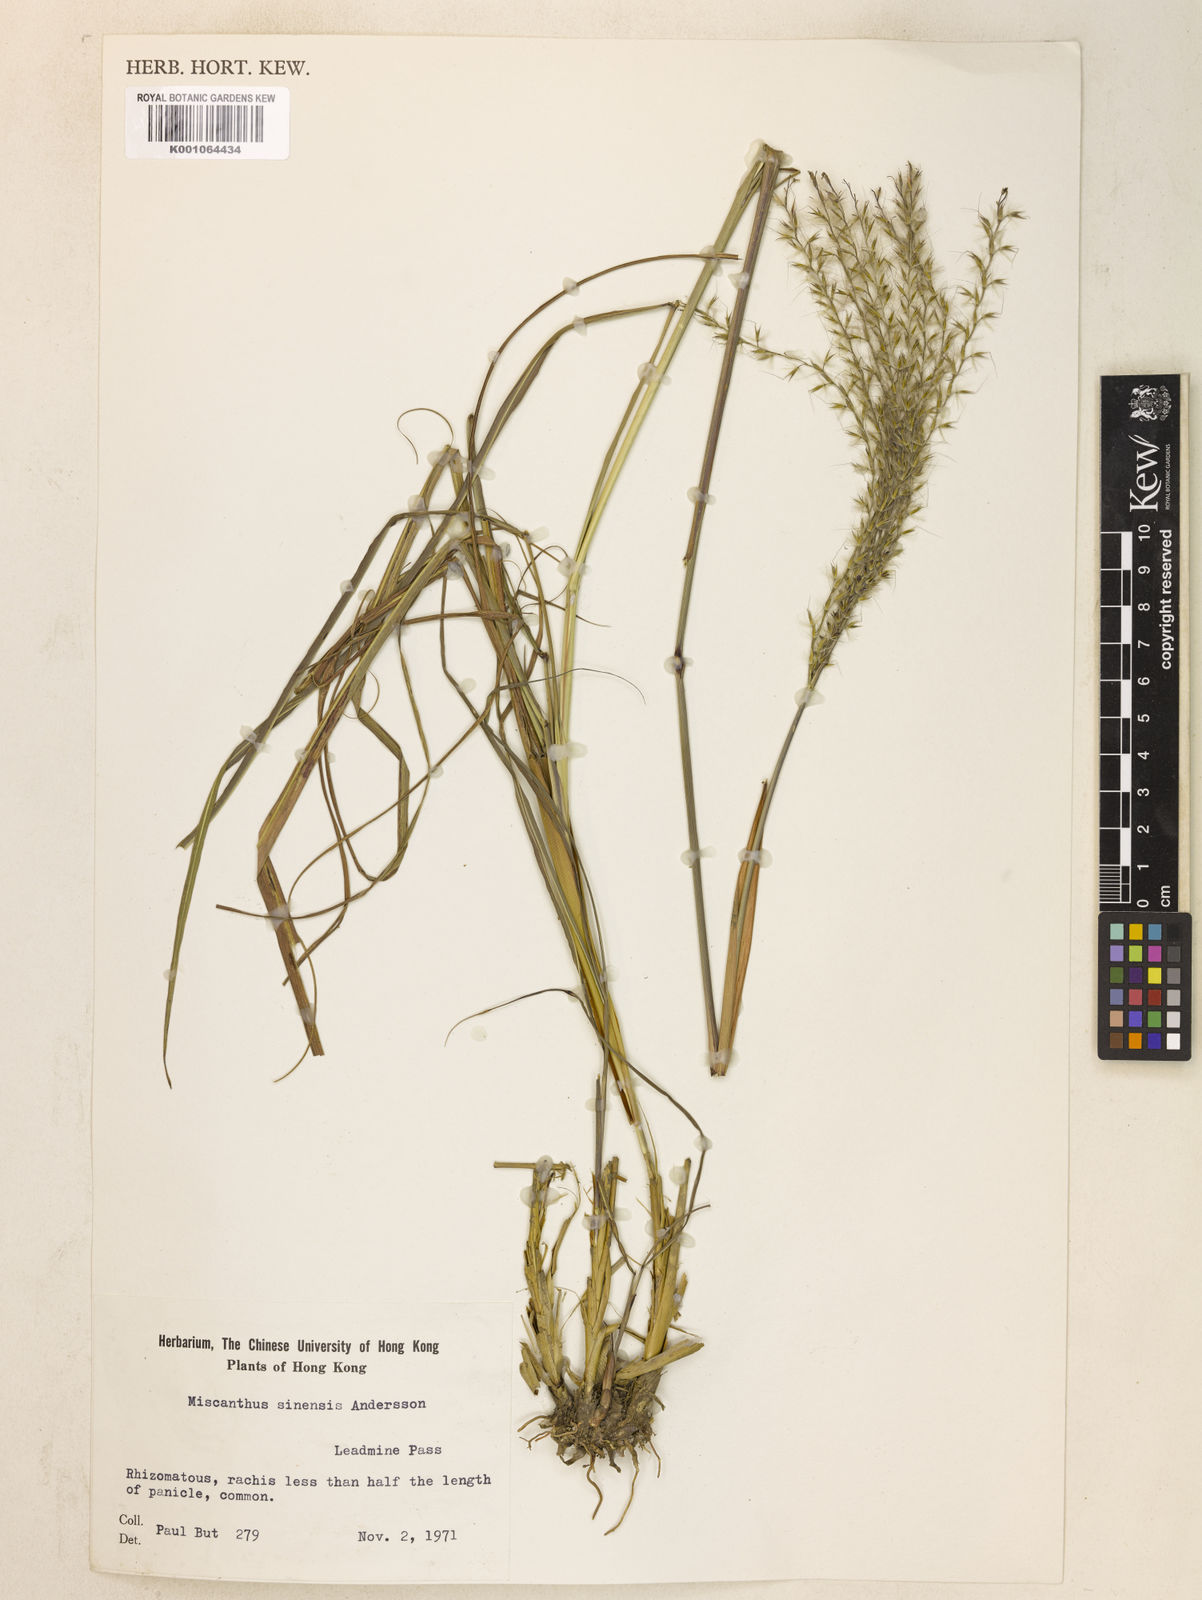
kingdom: Plantae
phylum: Tracheophyta
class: Liliopsida
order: Poales
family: Poaceae
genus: Miscanthus
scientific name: Miscanthus sinensis
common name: Chinese silvergrass
